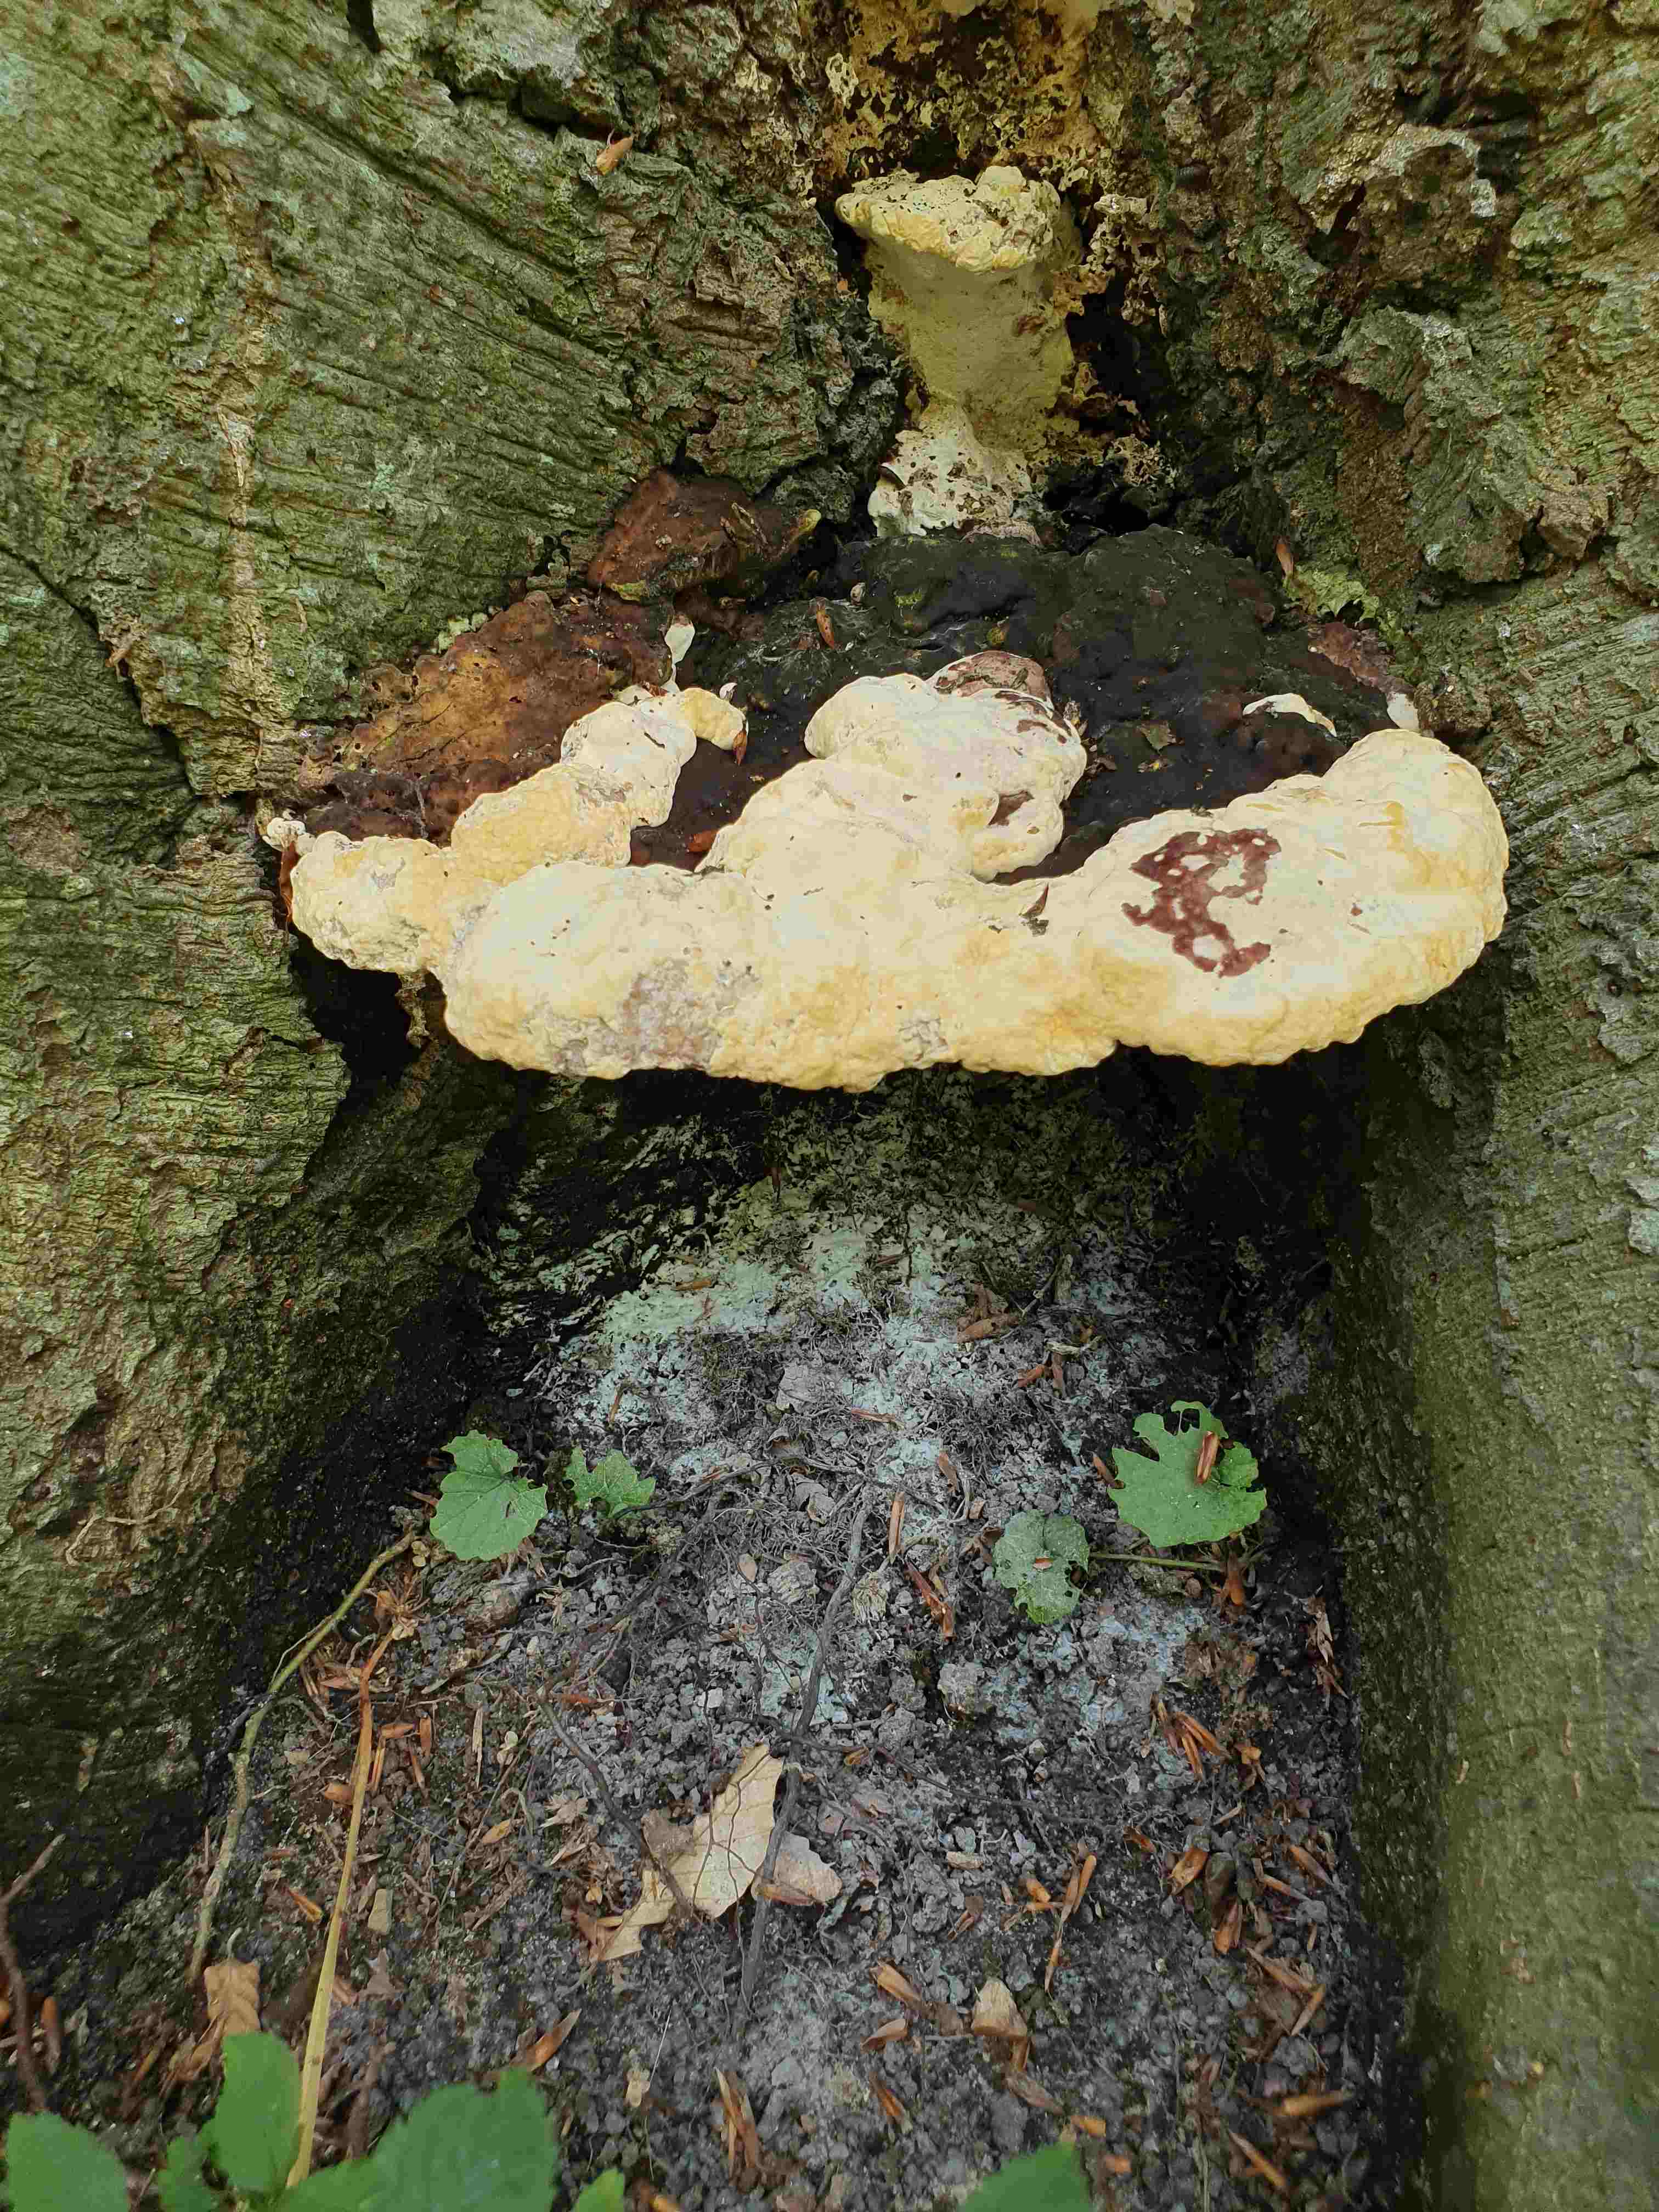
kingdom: Fungi
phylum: Basidiomycota
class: Agaricomycetes
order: Polyporales
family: Polyporaceae
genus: Vanderbylia
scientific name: Vanderbylia fraxinea
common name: stor kanelporesvamp
